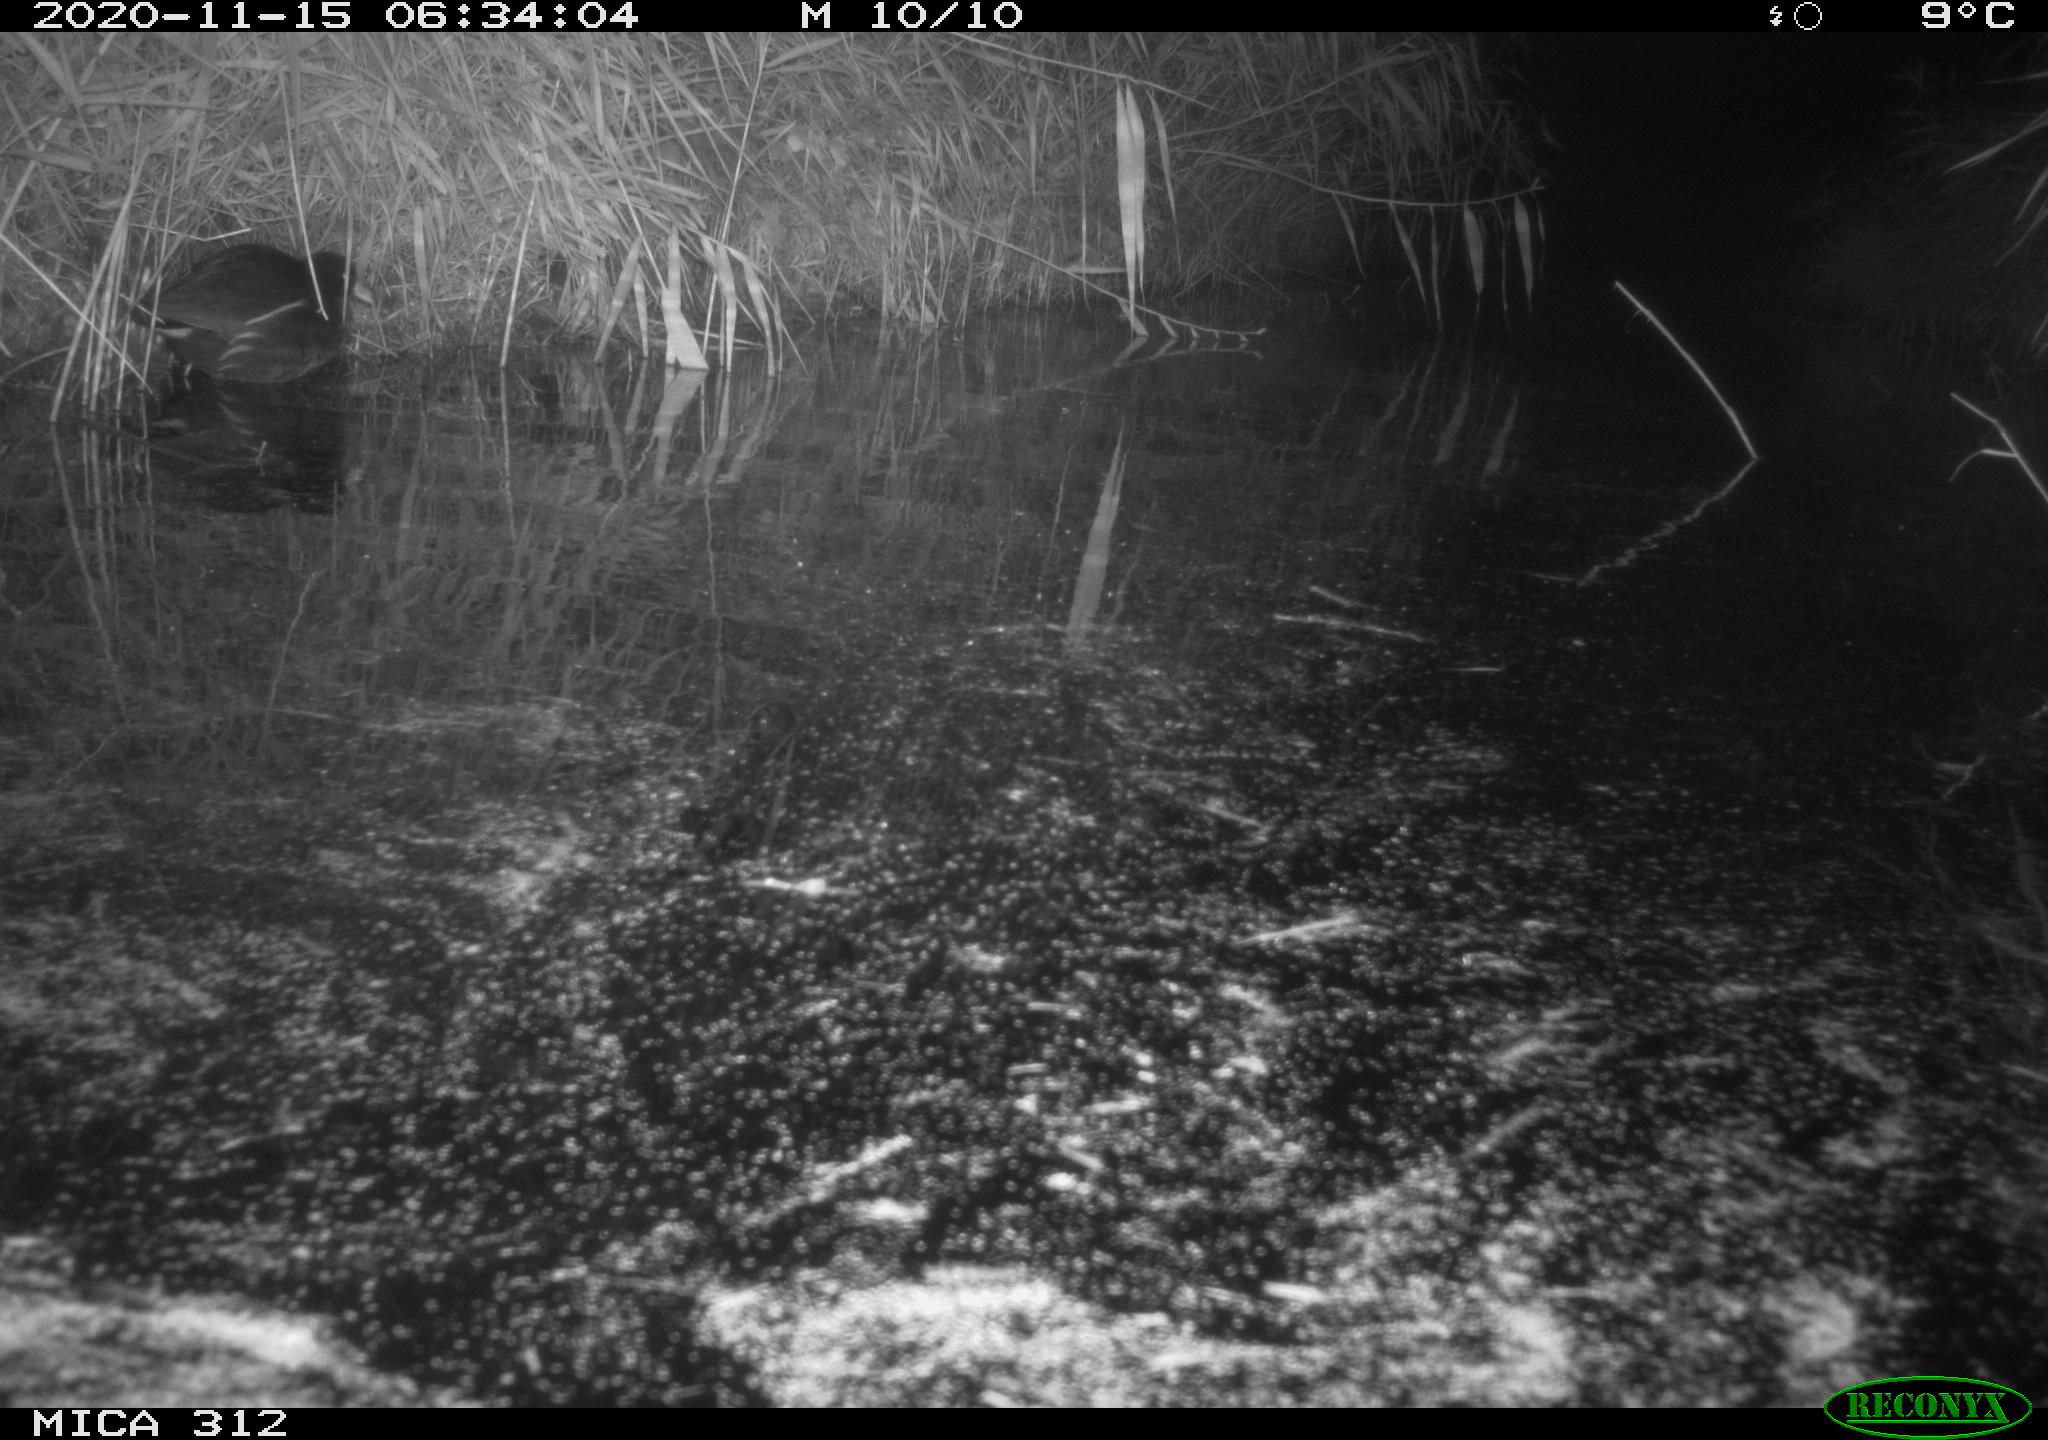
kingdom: Animalia
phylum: Chordata
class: Aves
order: Gruiformes
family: Rallidae
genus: Gallinula
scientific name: Gallinula chloropus
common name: Common moorhen
